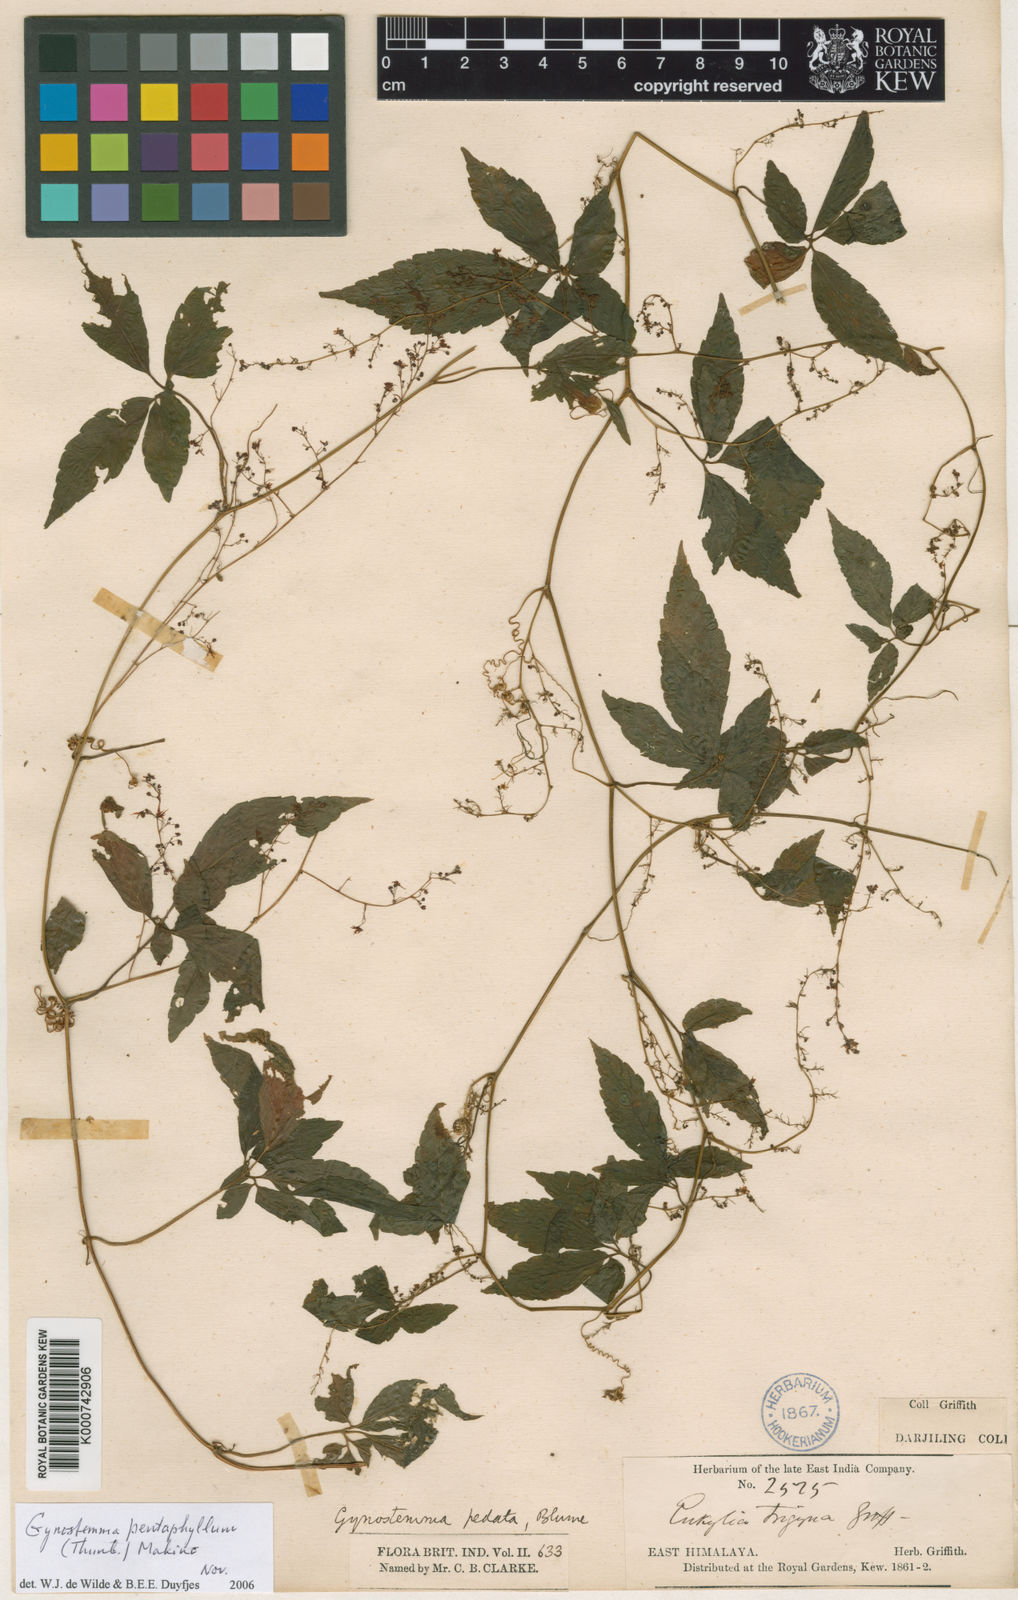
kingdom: Plantae
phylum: Tracheophyta
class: Magnoliopsida
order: Cucurbitales
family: Cucurbitaceae
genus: Gynostemma
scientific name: Gynostemma pentaphyllum
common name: Gynostemma
